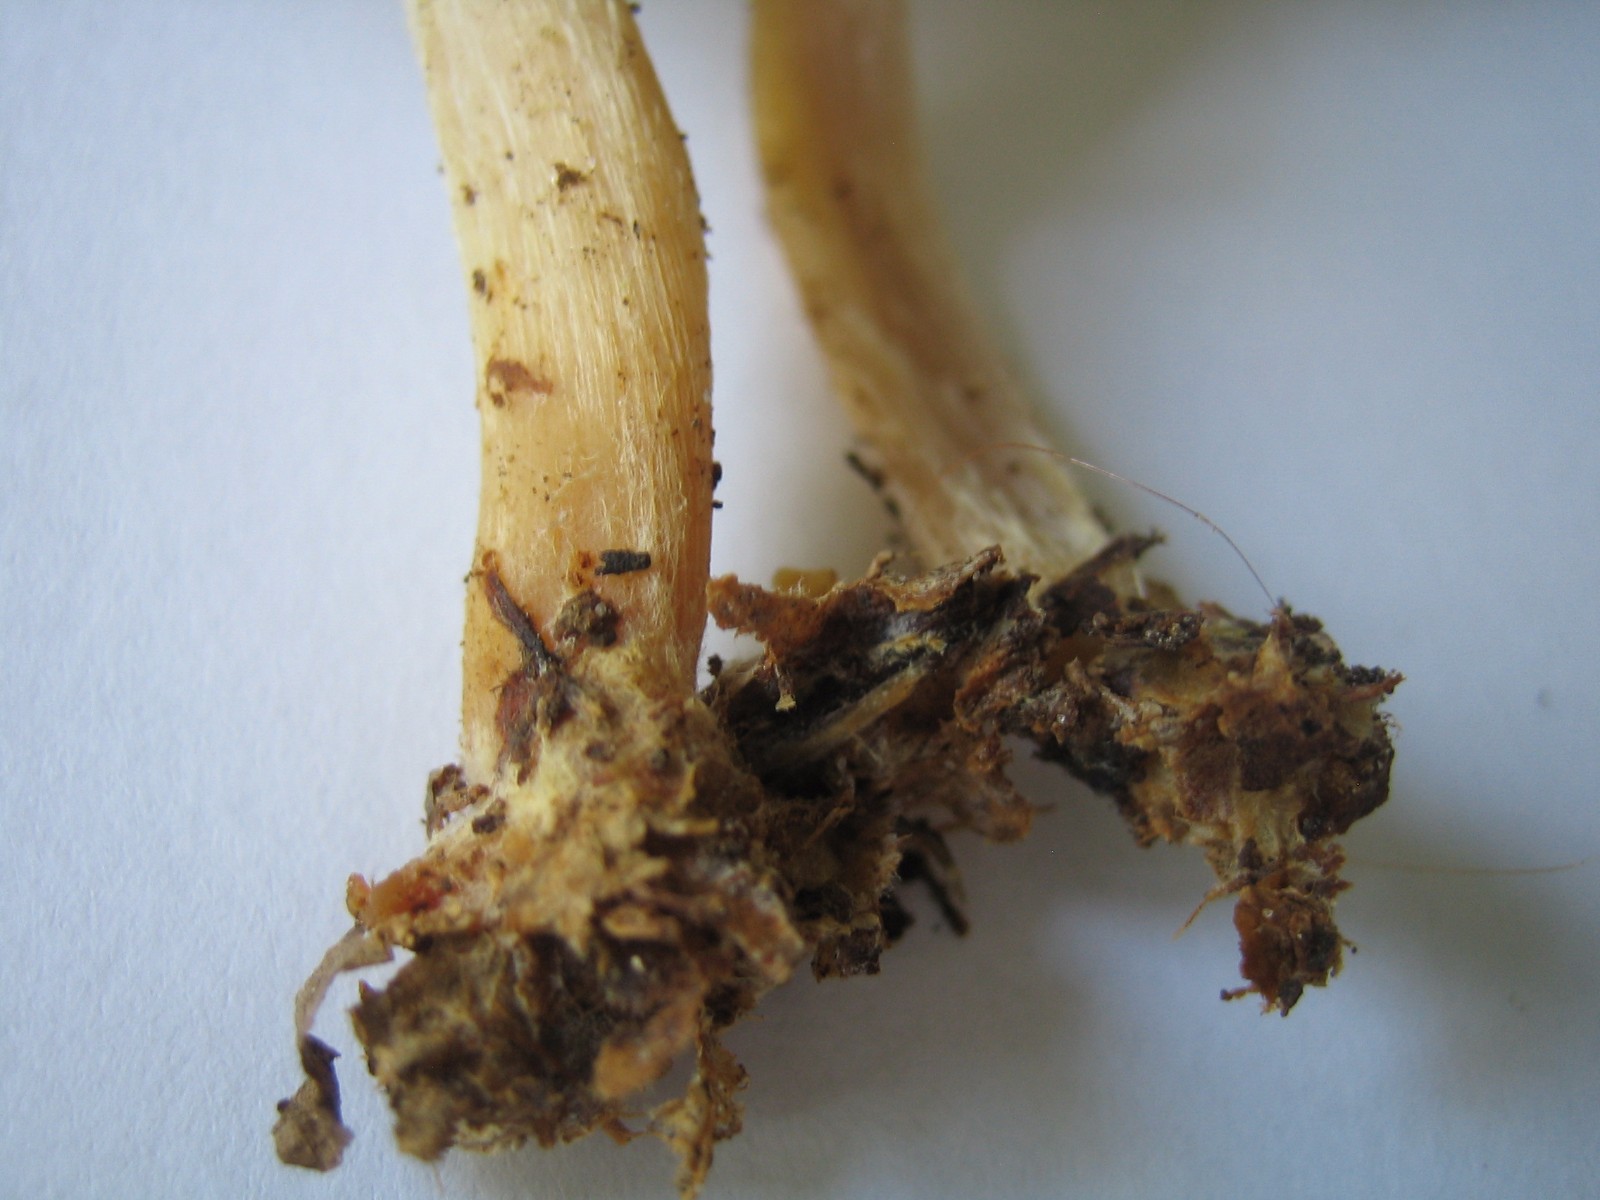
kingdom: Fungi
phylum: Basidiomycota
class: Agaricomycetes
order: Agaricales
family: Mycenaceae
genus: Mycena
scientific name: Mycena rosea
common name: rosa huesvamp
